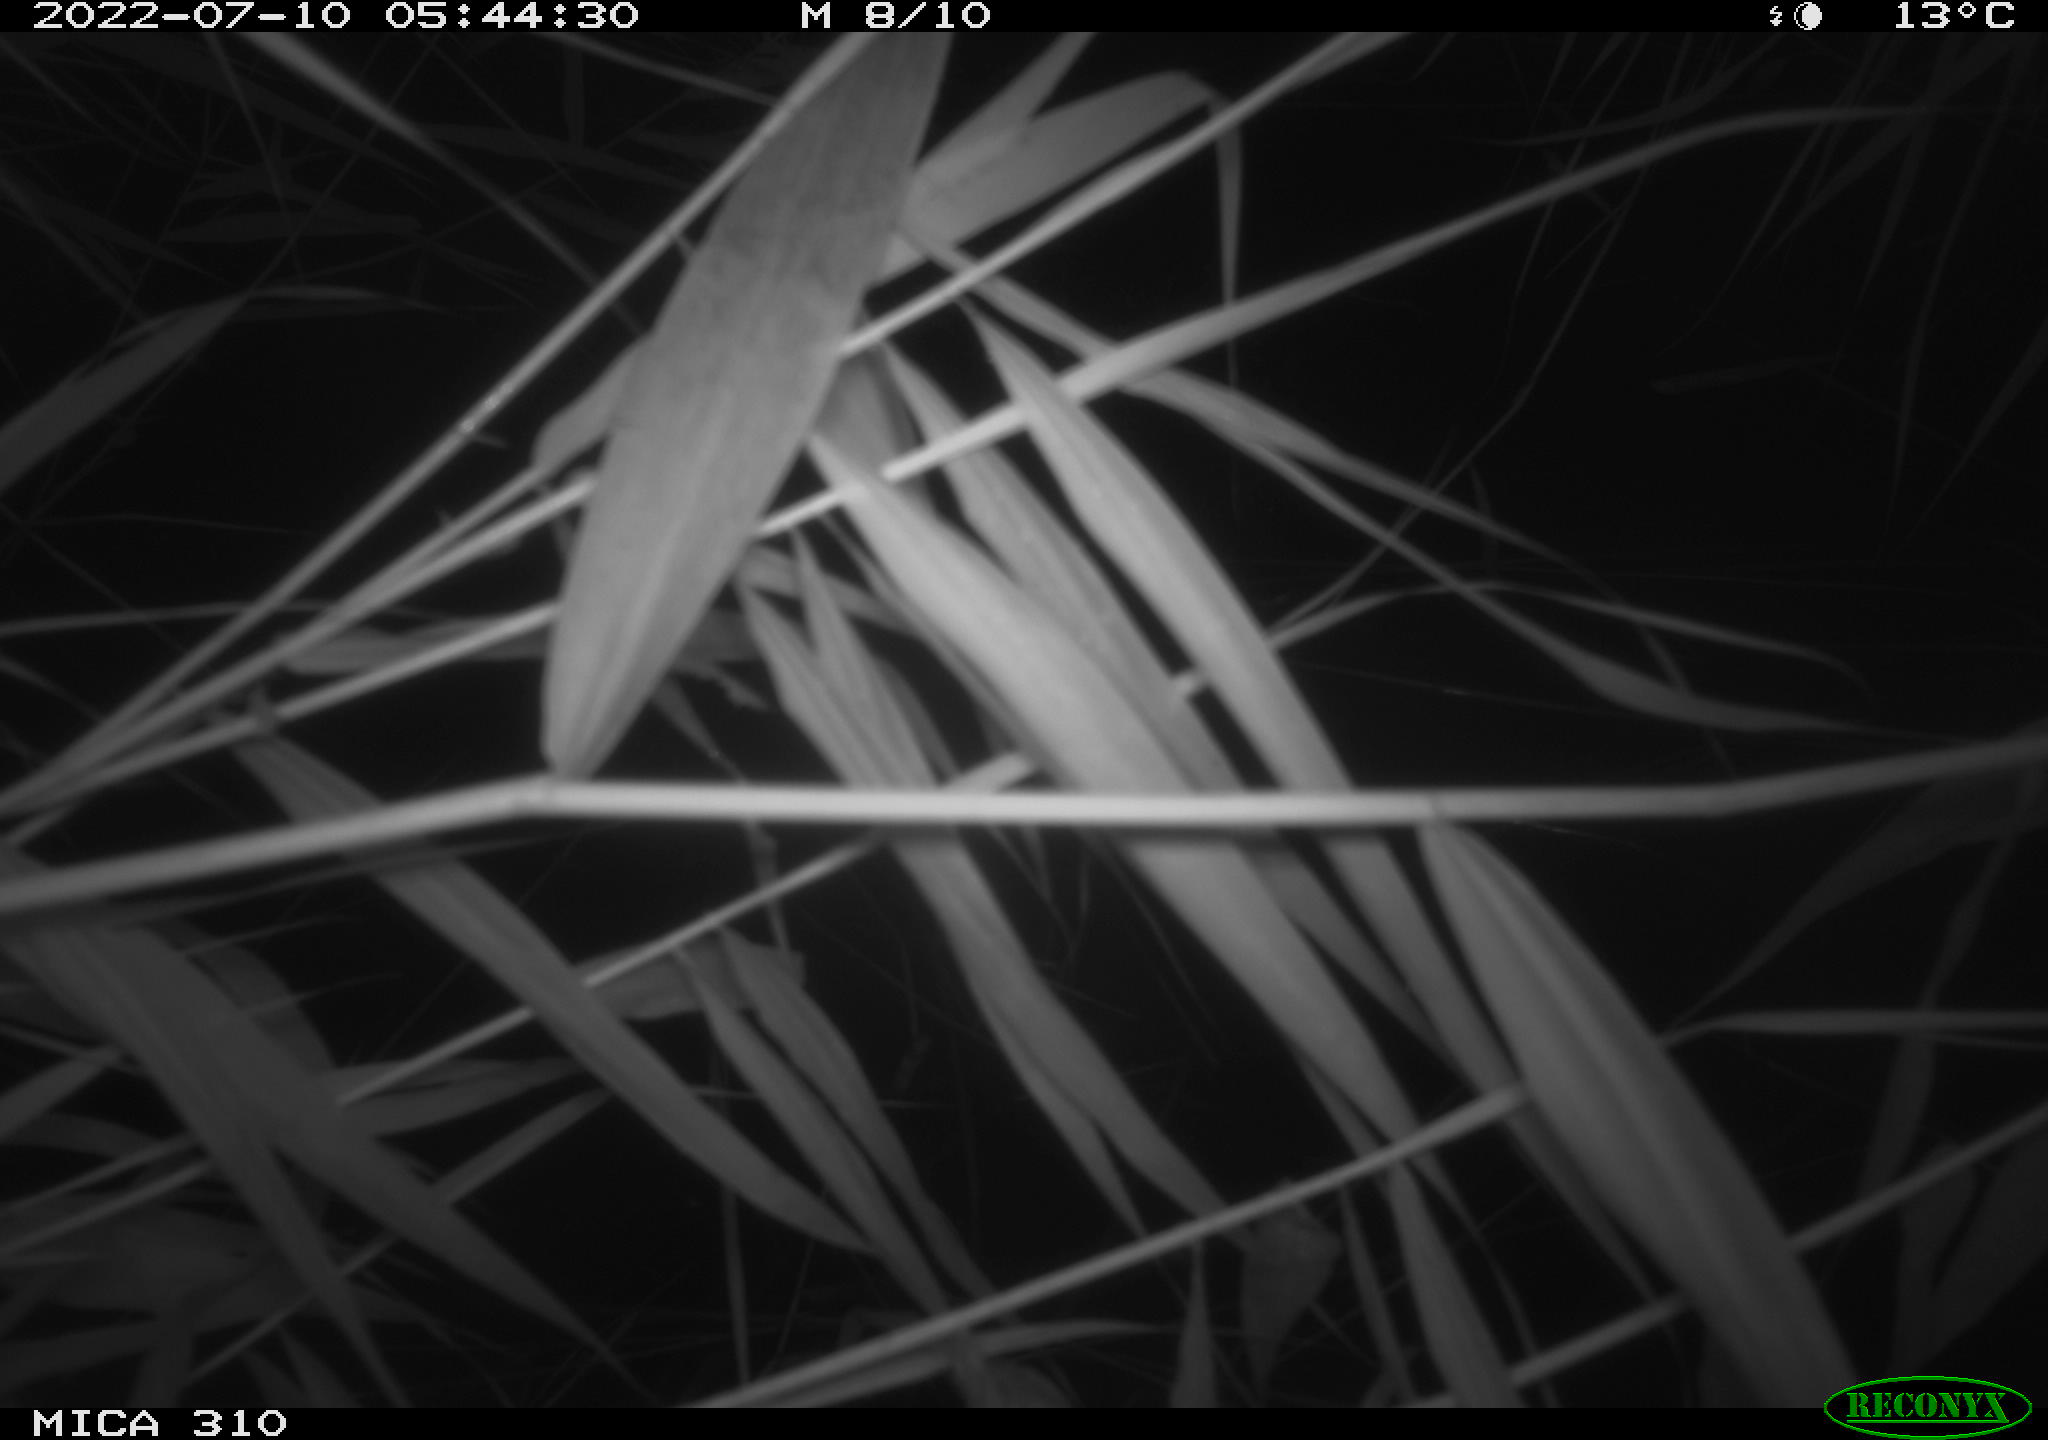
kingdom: Animalia
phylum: Chordata
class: Aves
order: Anseriformes
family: Anatidae
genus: Anas
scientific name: Anas platyrhynchos
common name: Mallard
